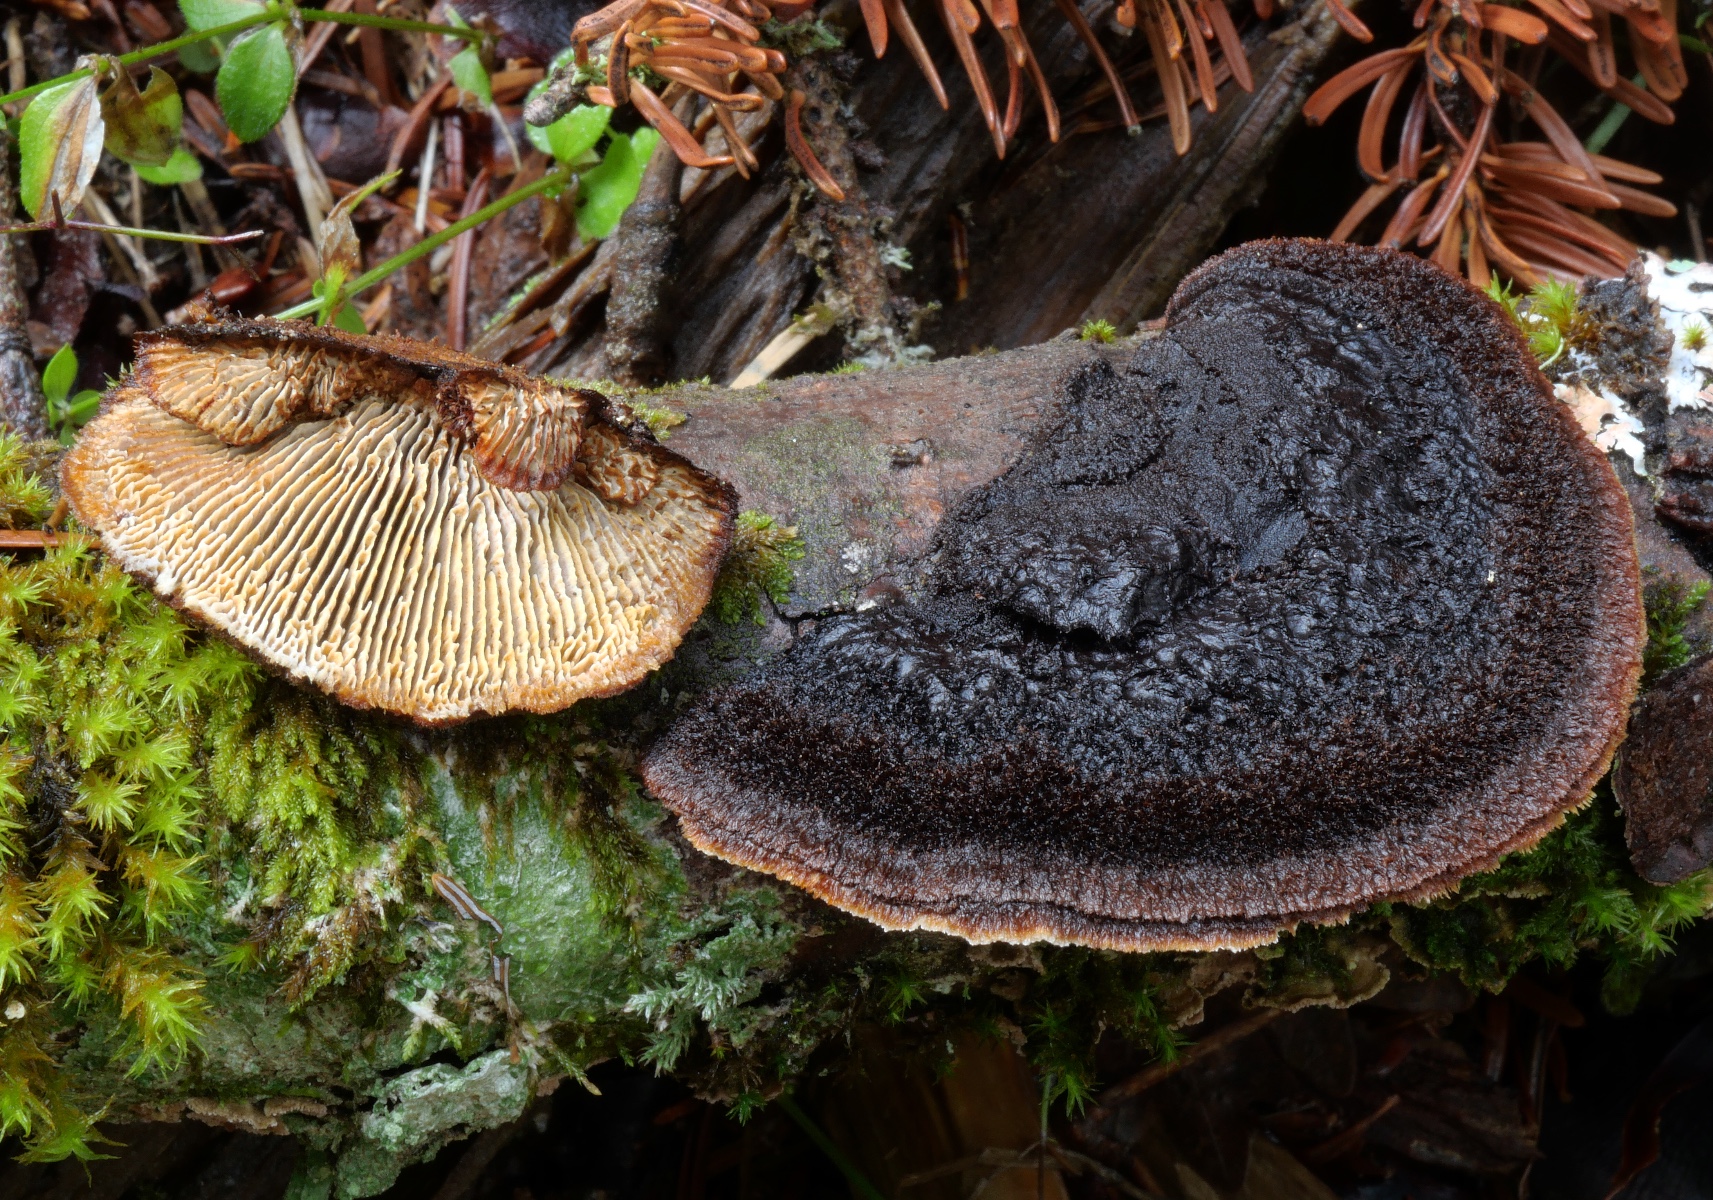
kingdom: Fungi
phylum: Basidiomycota
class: Agaricomycetes
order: Gloeophyllales
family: Gloeophyllaceae
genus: Gloeophyllum
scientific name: Gloeophyllum sepiarium
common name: fyrre-korkhat
